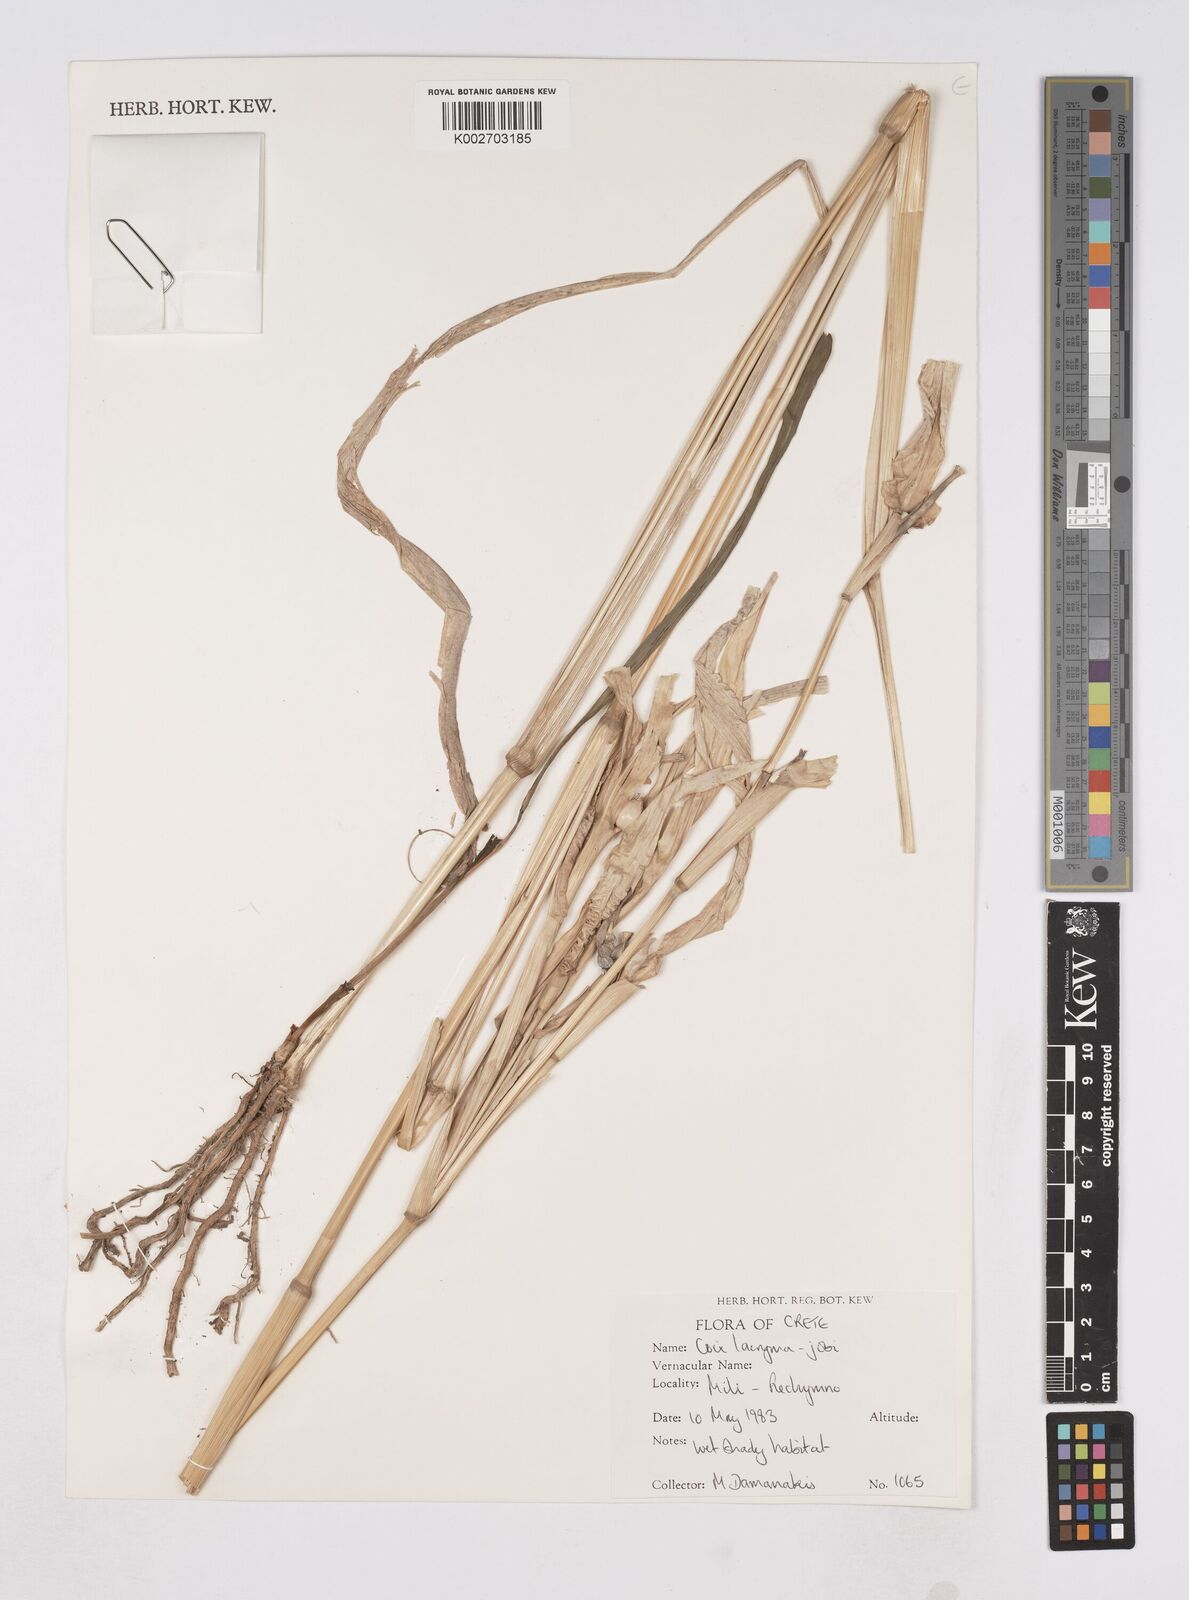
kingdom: Plantae
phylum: Tracheophyta
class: Liliopsida
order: Poales
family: Poaceae
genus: Coix
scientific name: Coix lacryma-jobi
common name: Job's tears
